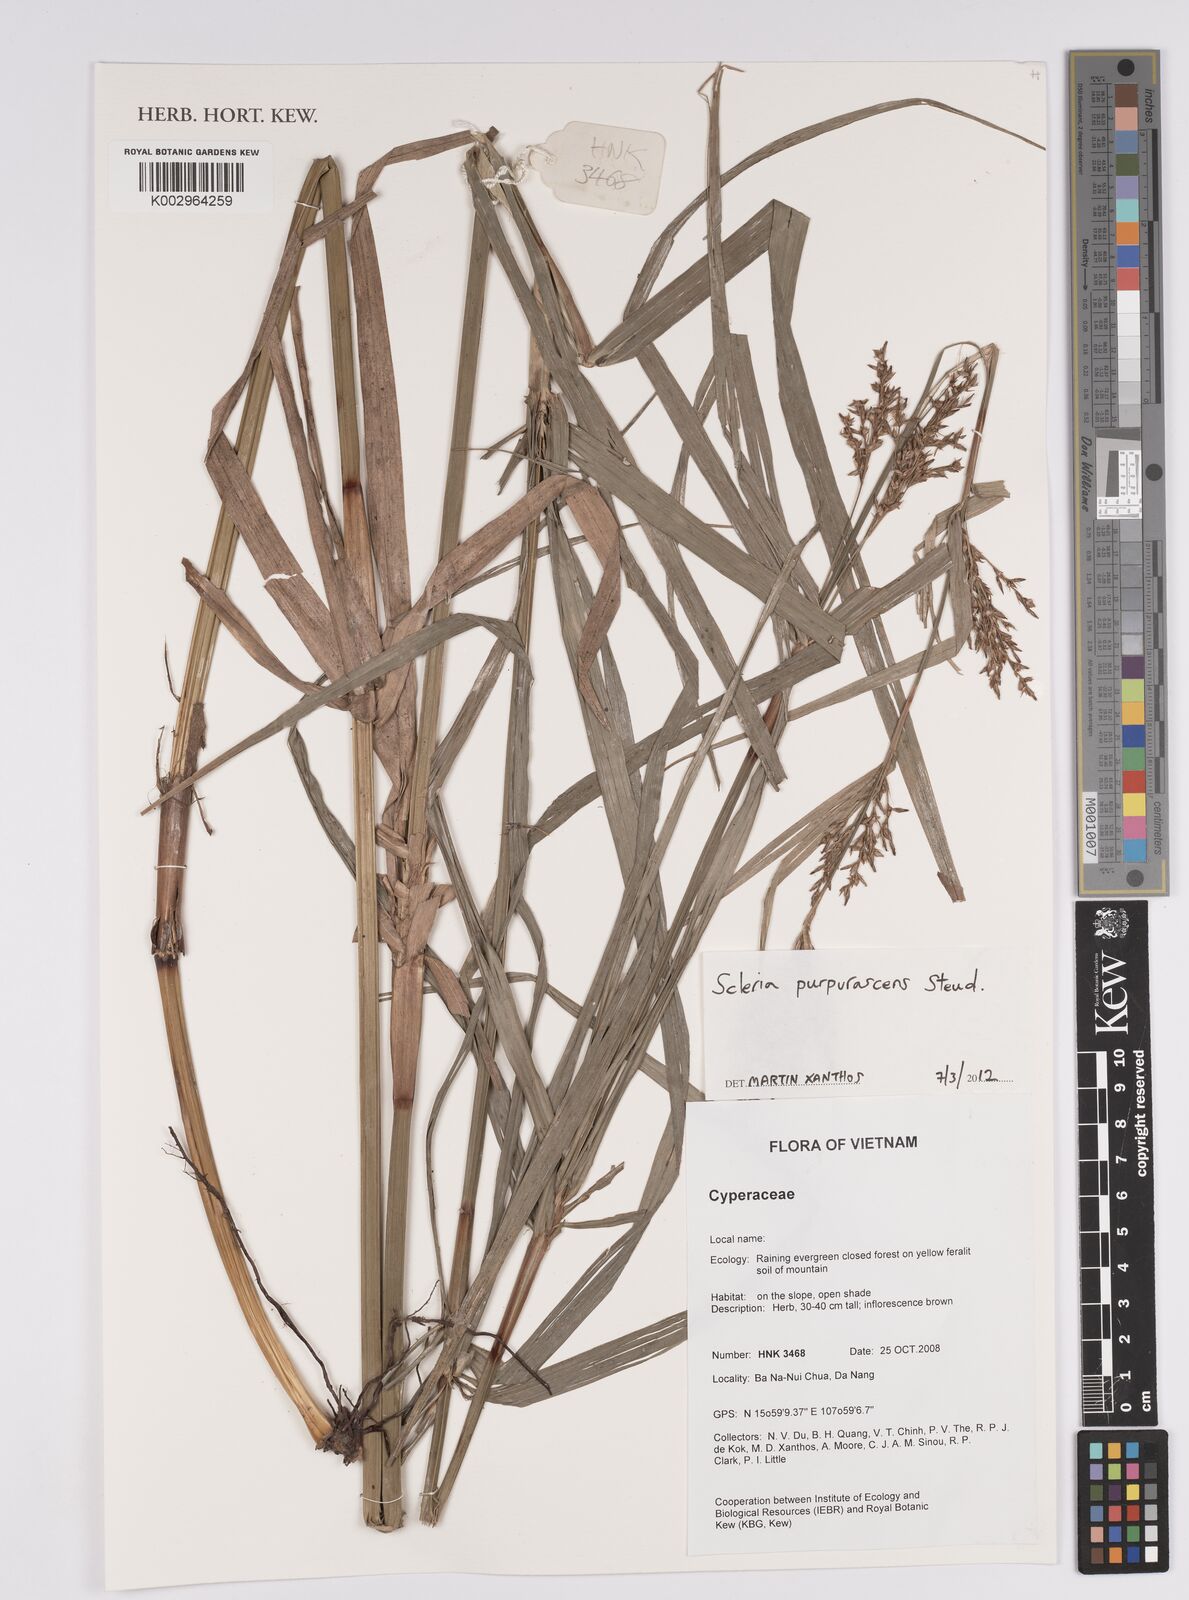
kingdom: Plantae
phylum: Tracheophyta
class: Liliopsida
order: Poales
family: Cyperaceae
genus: Scleria
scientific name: Scleria purpurascens
